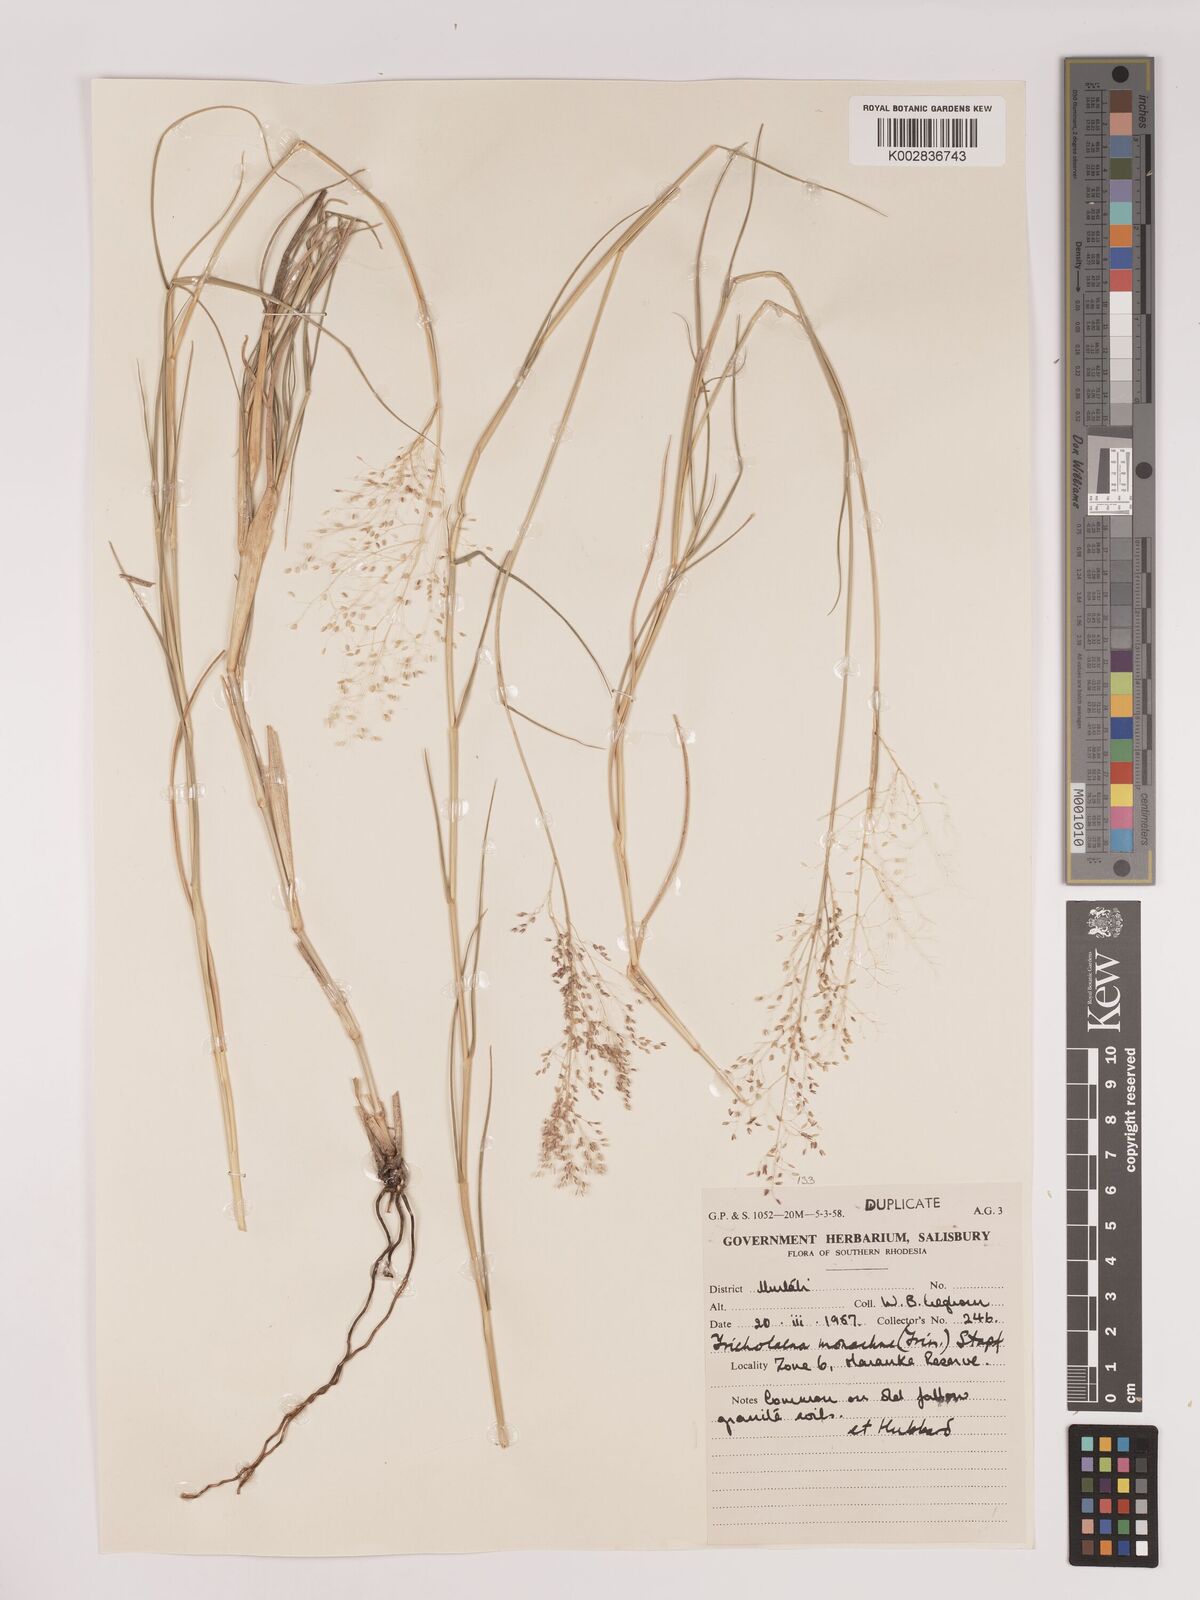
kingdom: Plantae
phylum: Tracheophyta
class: Liliopsida
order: Poales
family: Poaceae
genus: Tricholaena
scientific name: Tricholaena monachne
